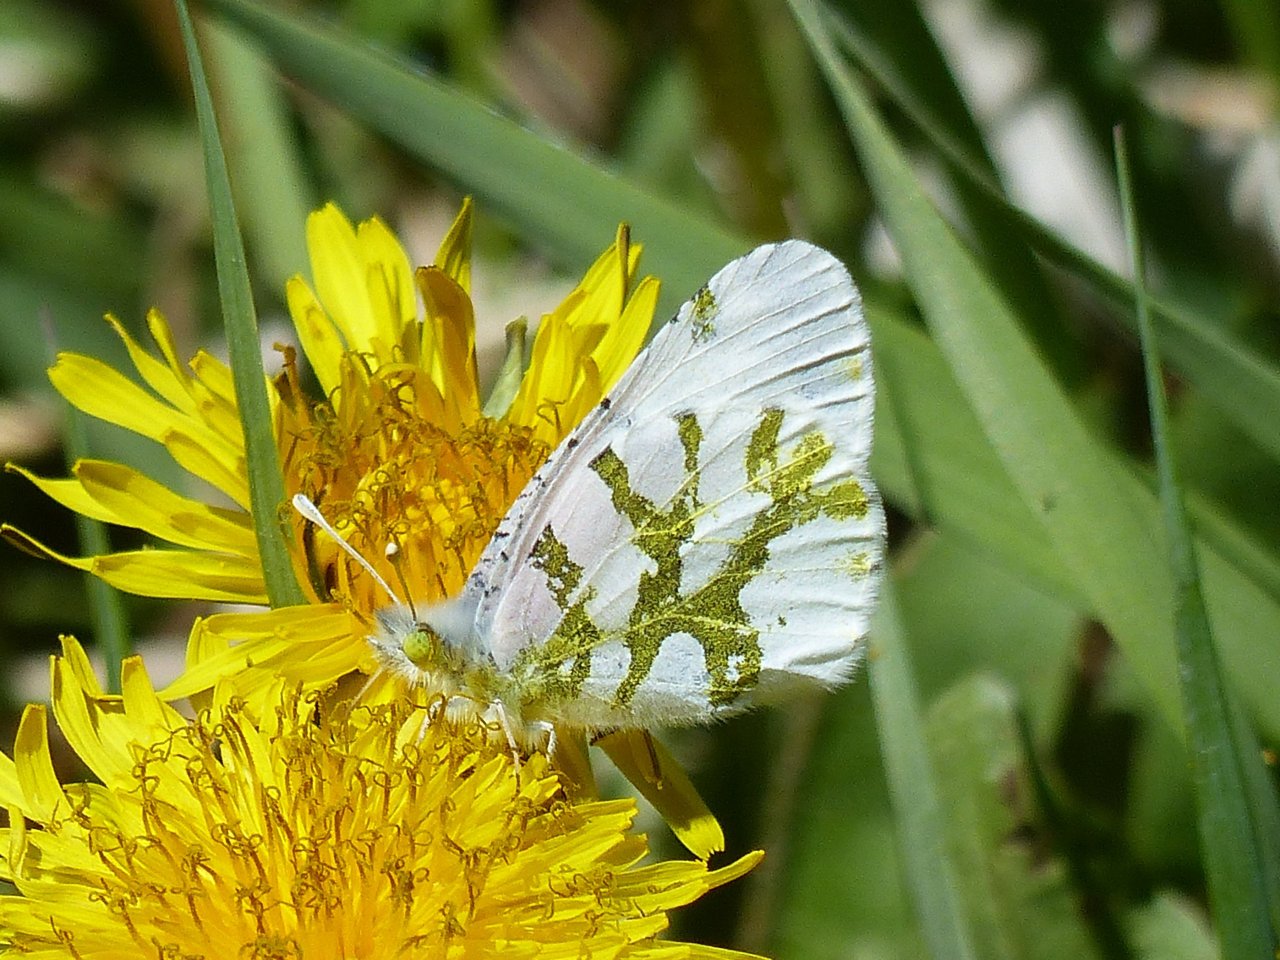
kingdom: Animalia
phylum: Arthropoda
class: Insecta
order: Lepidoptera
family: Pieridae
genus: Euchloe
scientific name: Euchloe olympia
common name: Olympia Marble
